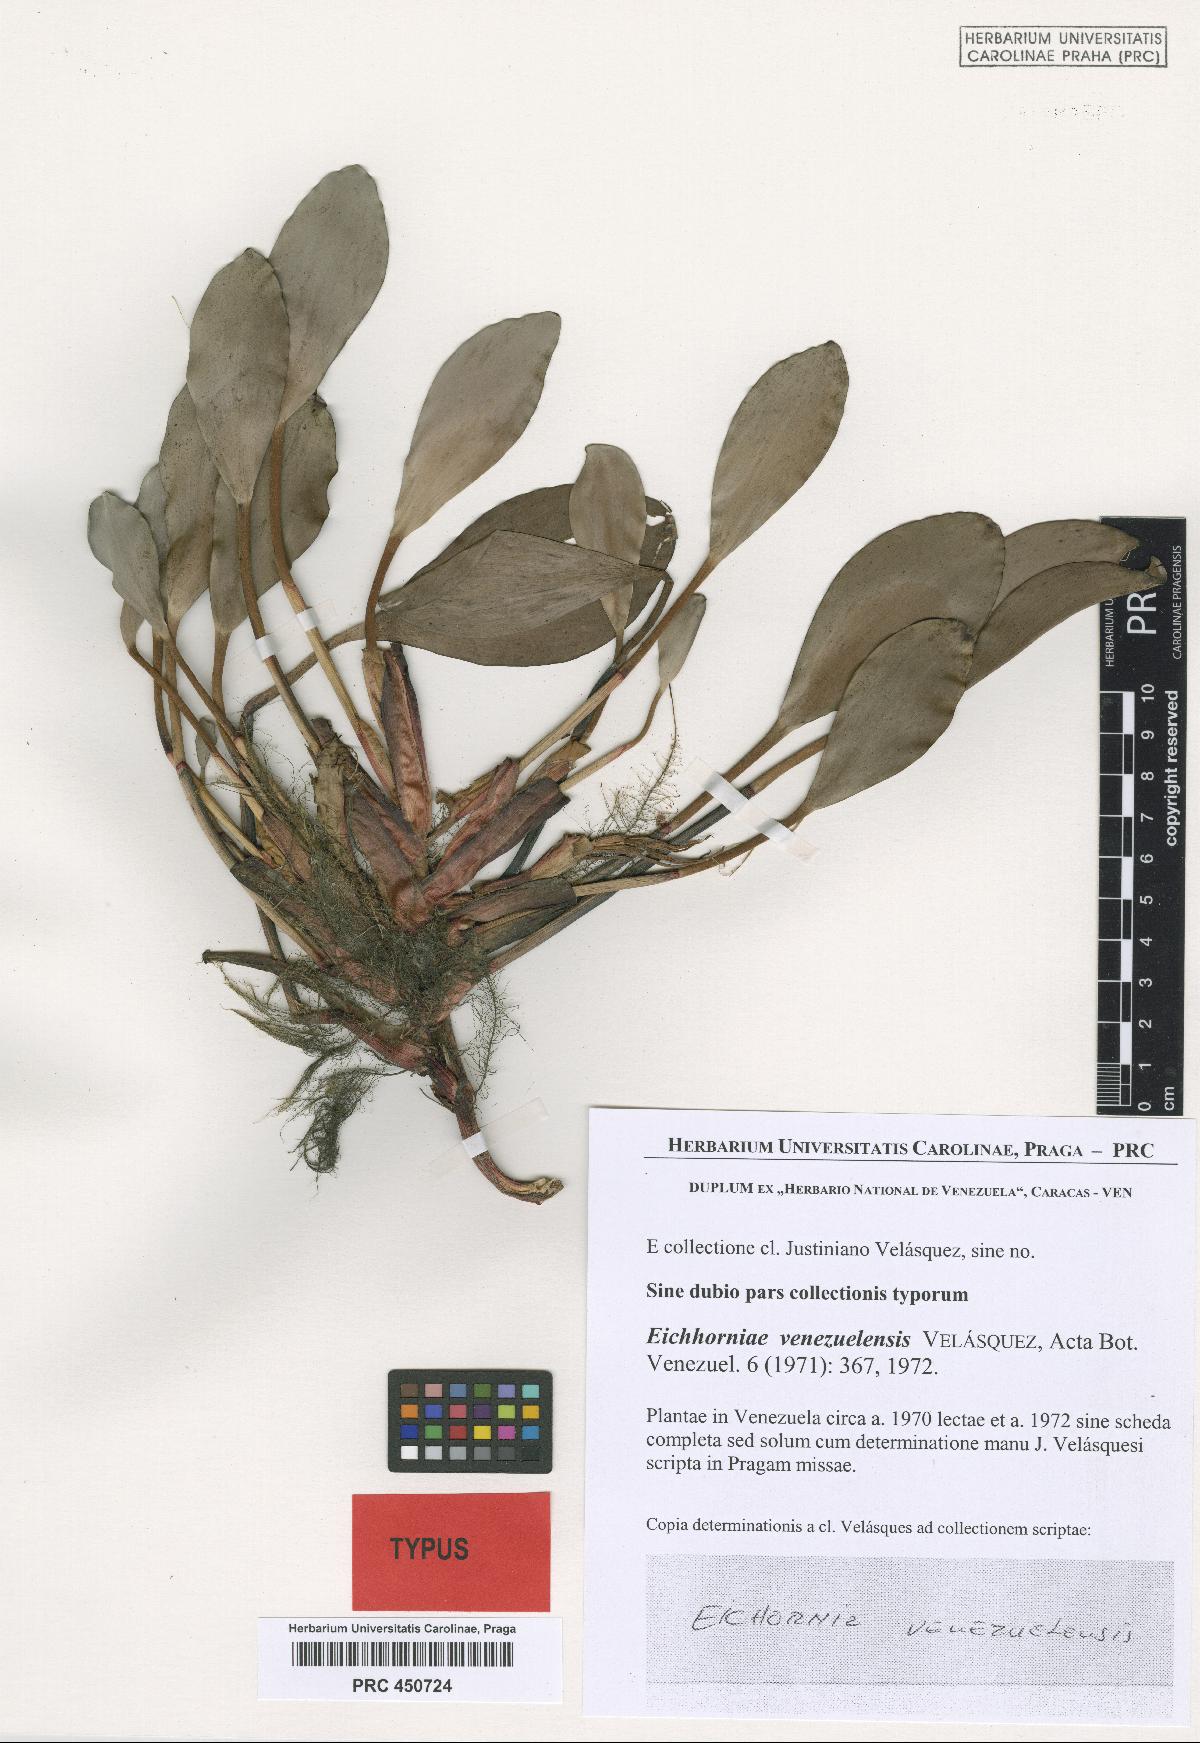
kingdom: Plantae
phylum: Tracheophyta
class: Liliopsida
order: Commelinales
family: Pontederiaceae
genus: Pontederia
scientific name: Pontederia heterosperma
